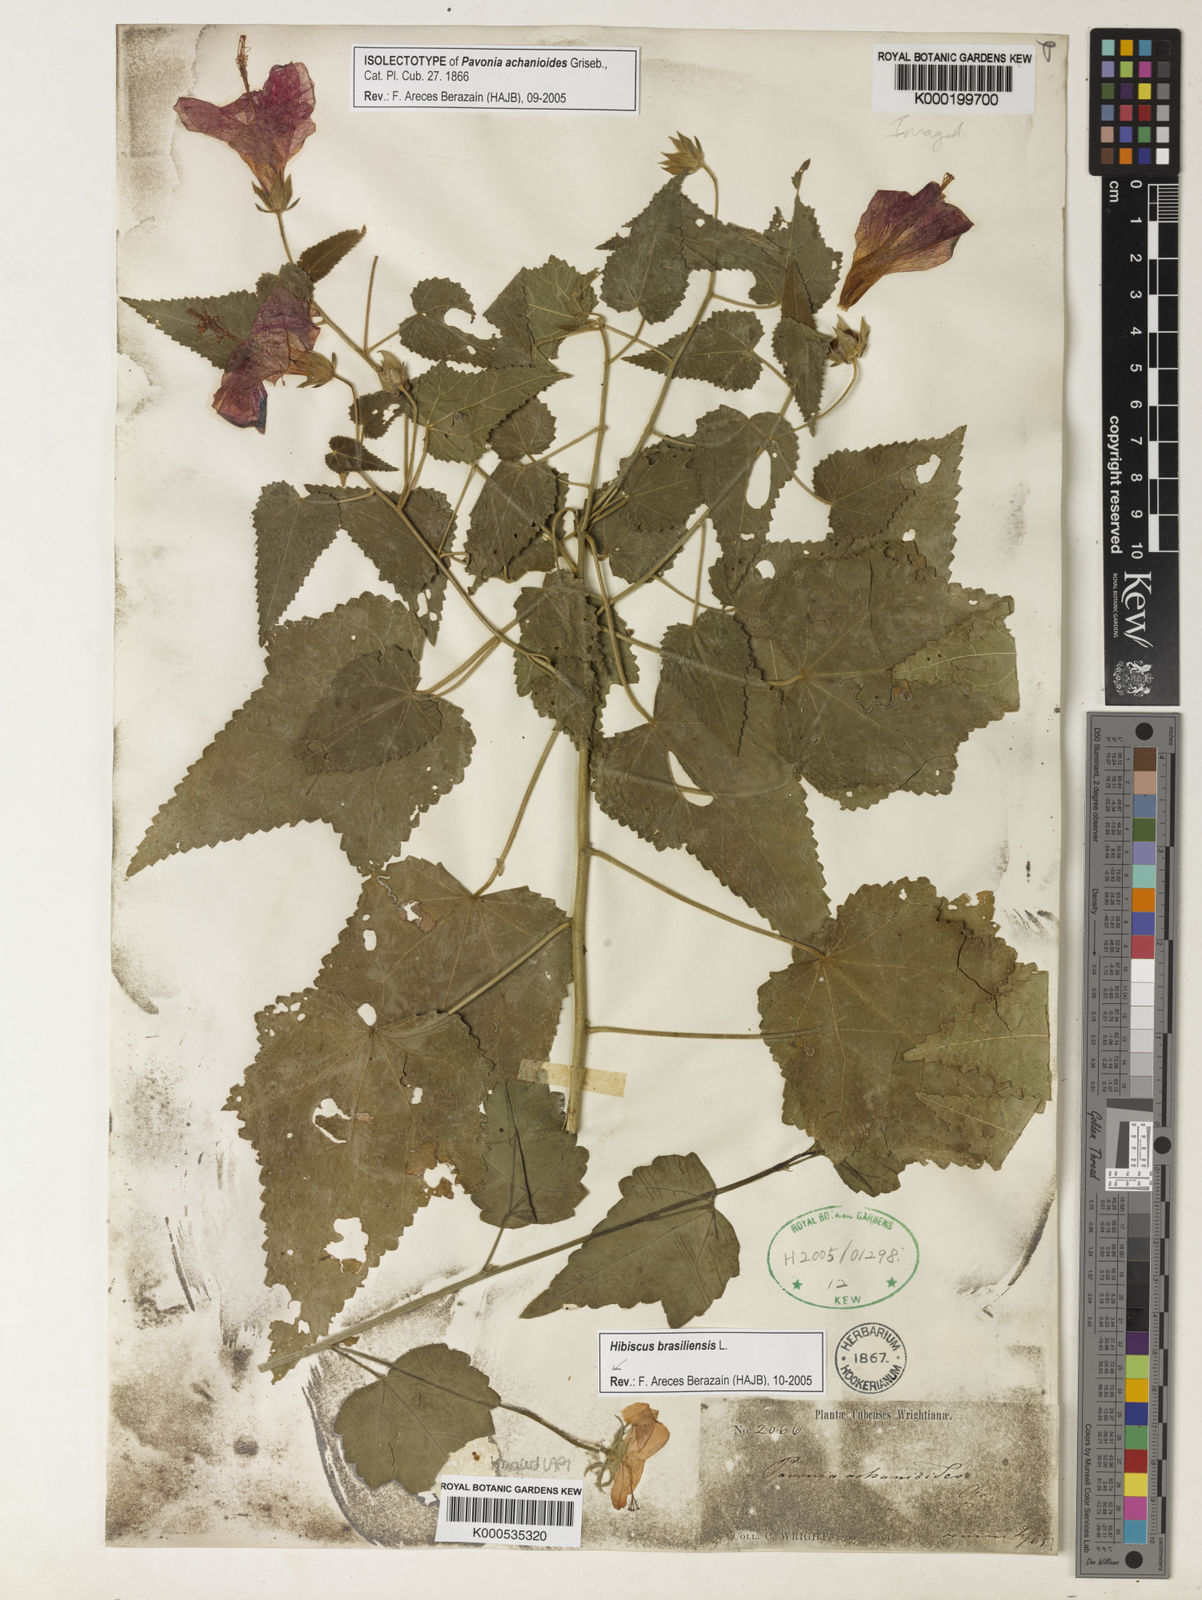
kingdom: Plantae
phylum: Tracheophyta
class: Magnoliopsida
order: Malvales
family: Malvaceae
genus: Pavonia
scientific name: Pavonia achanioides
